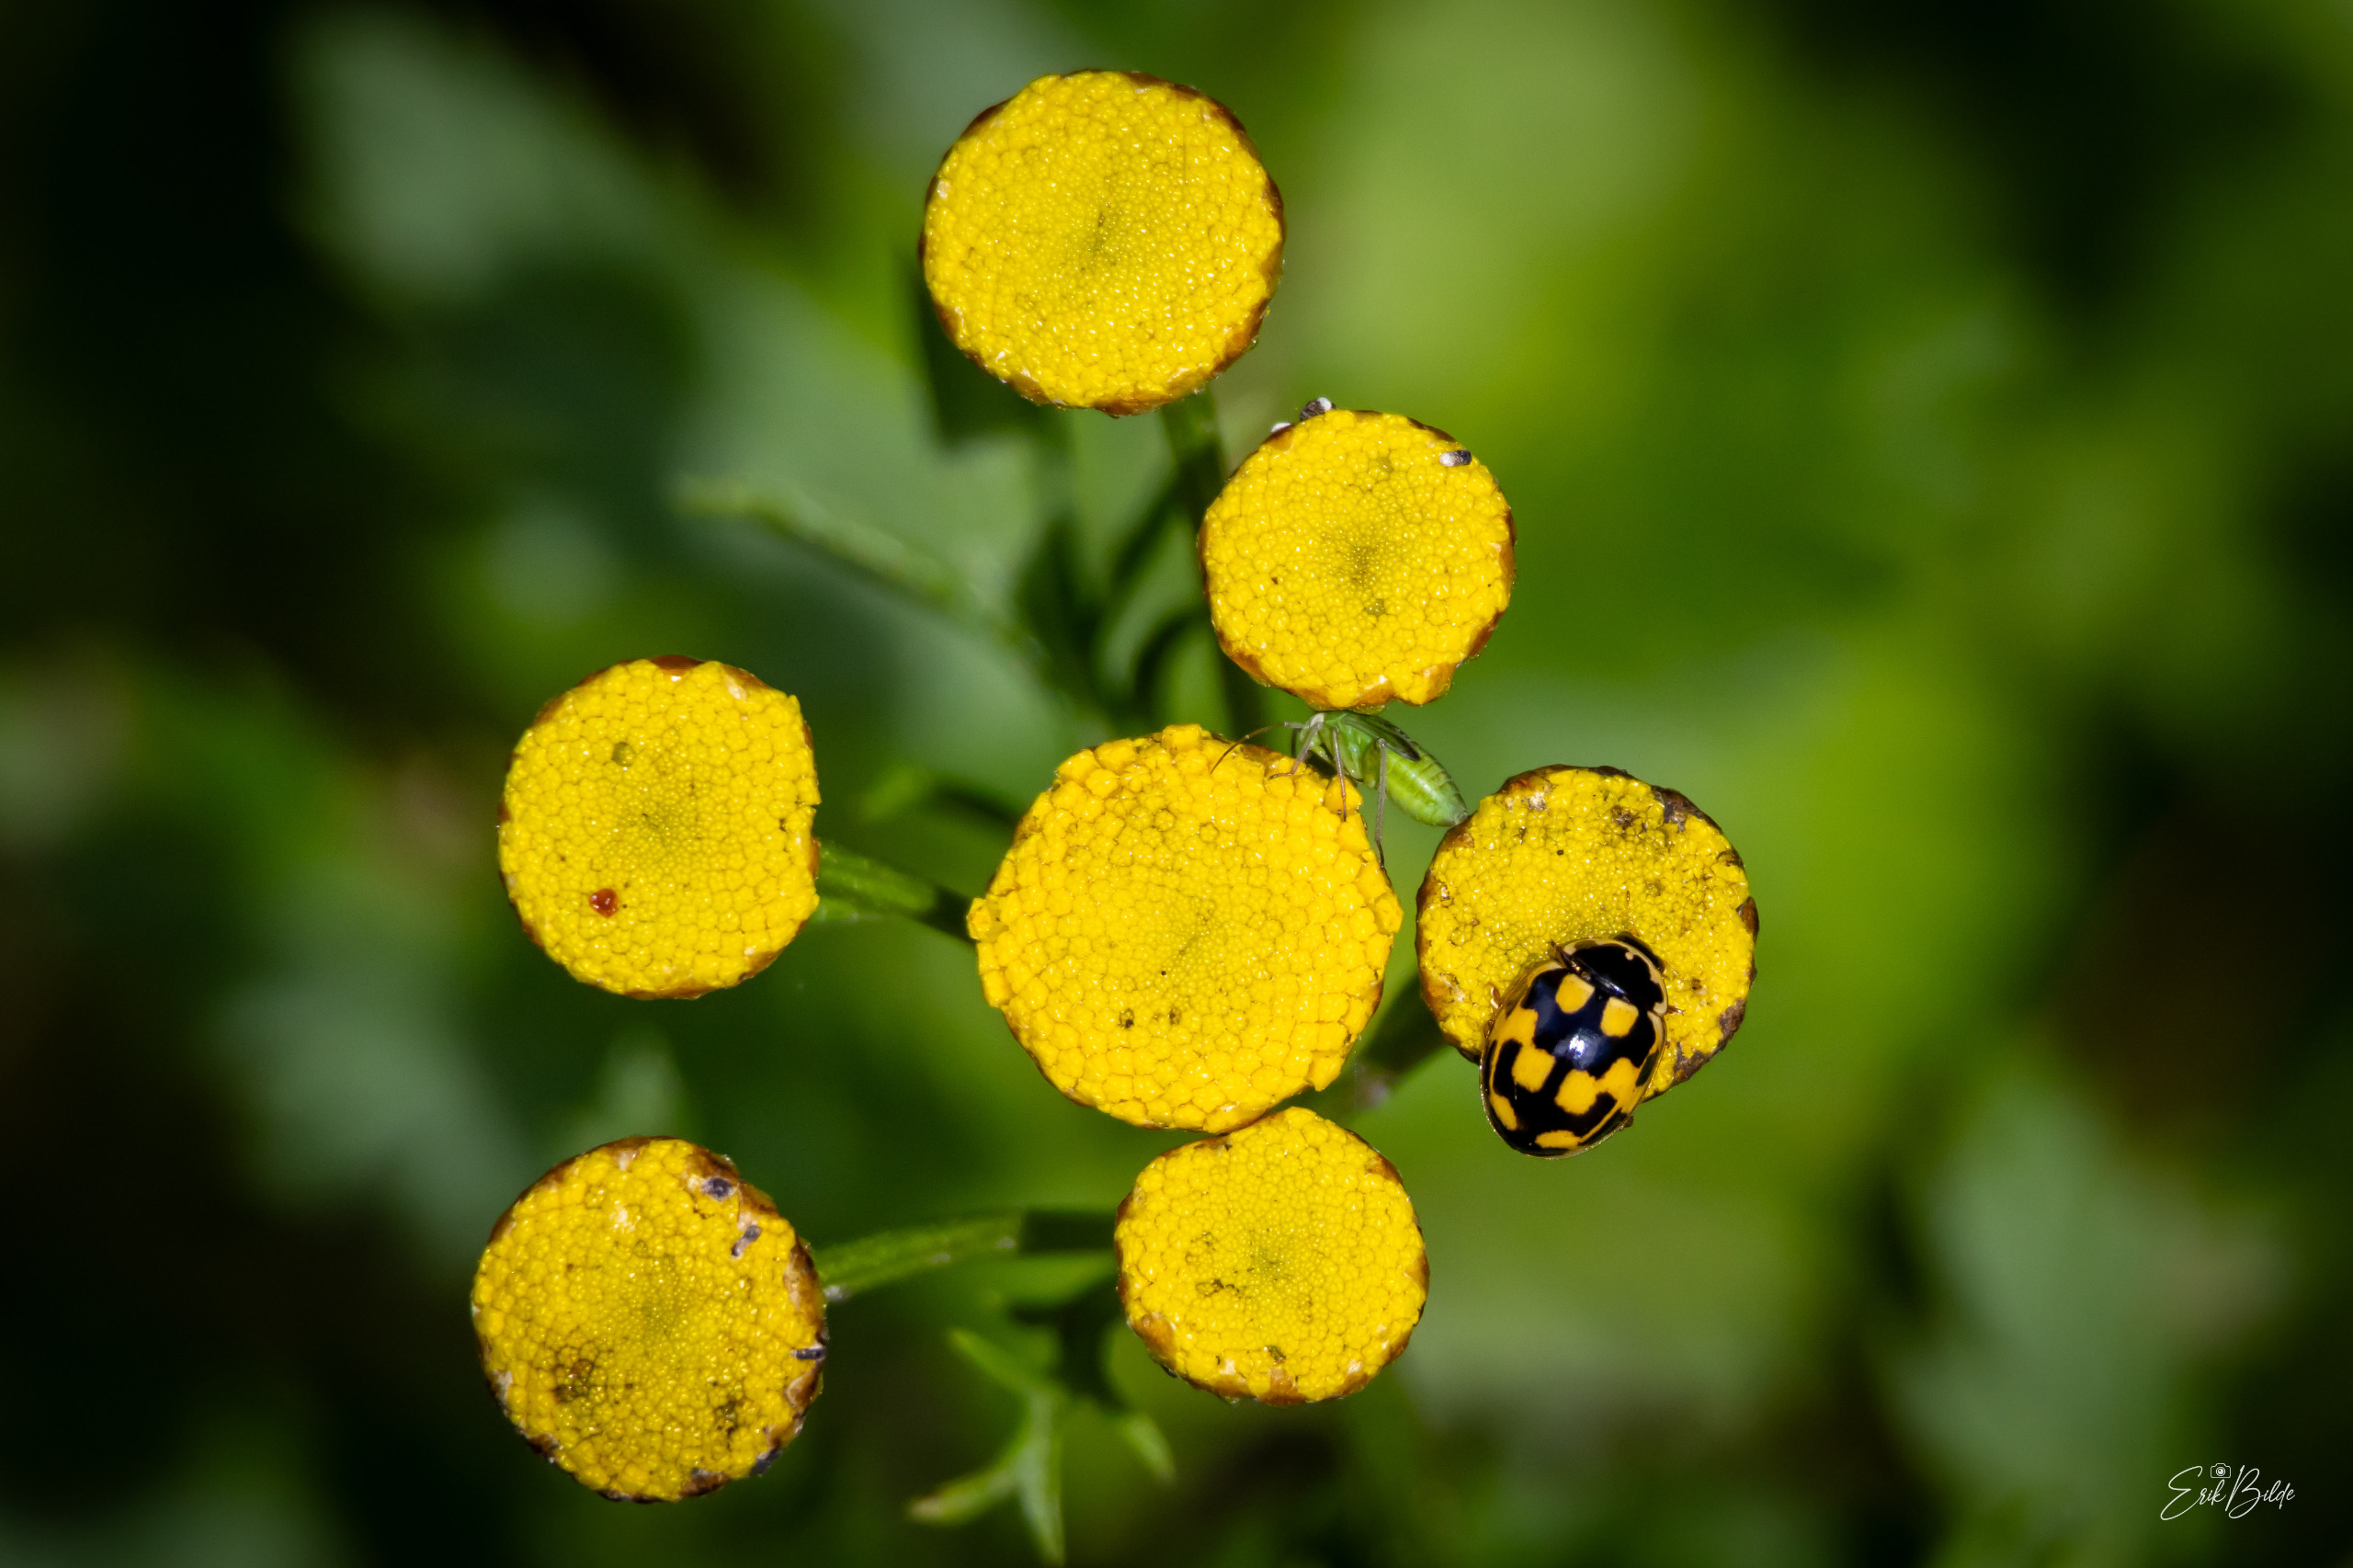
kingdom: Animalia
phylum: Arthropoda
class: Insecta
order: Coleoptera
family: Coccinellidae
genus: Propylaea
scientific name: Propylaea quatuordecimpunctata
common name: Skakbræt
